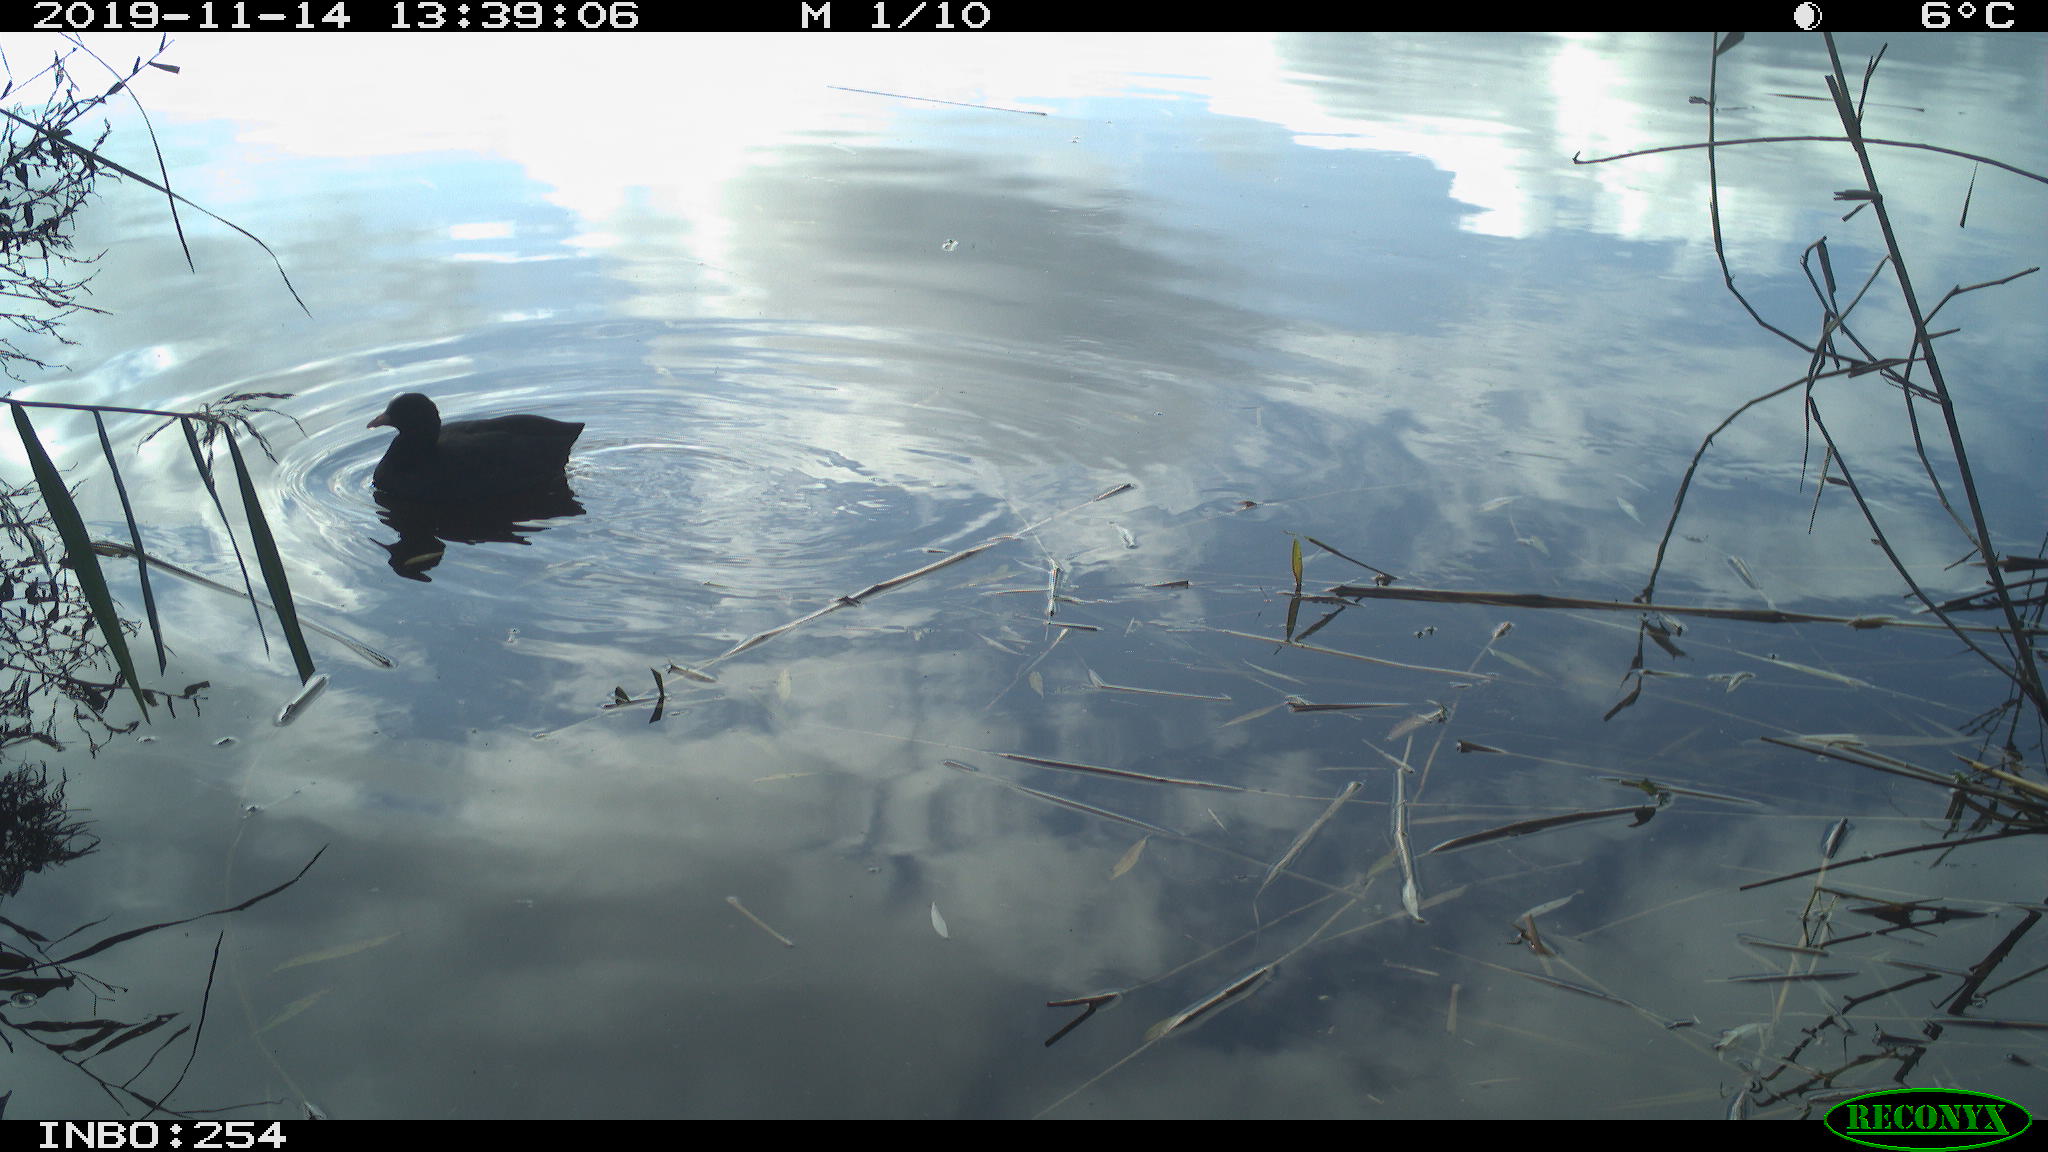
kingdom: Animalia
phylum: Chordata
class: Aves
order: Gruiformes
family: Rallidae
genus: Fulica
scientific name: Fulica atra
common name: Eurasian coot
